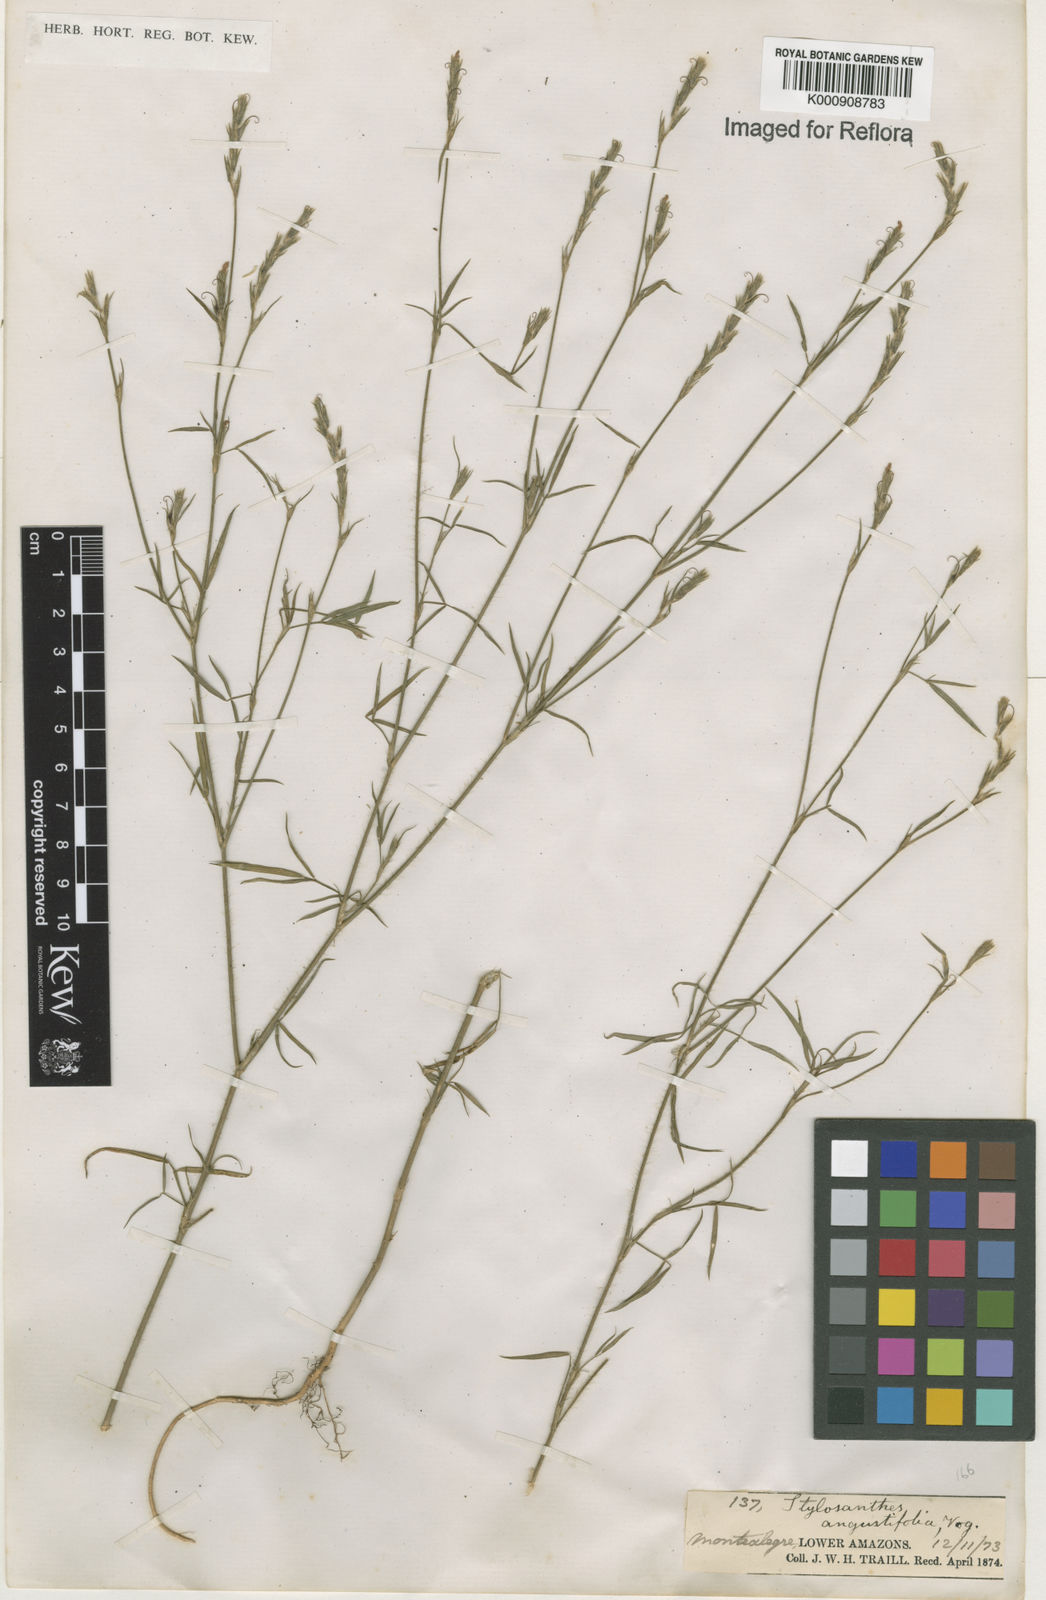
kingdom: Plantae
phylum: Tracheophyta
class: Magnoliopsida
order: Fabales
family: Fabaceae
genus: Stylosanthes
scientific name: Stylosanthes angustifolia
